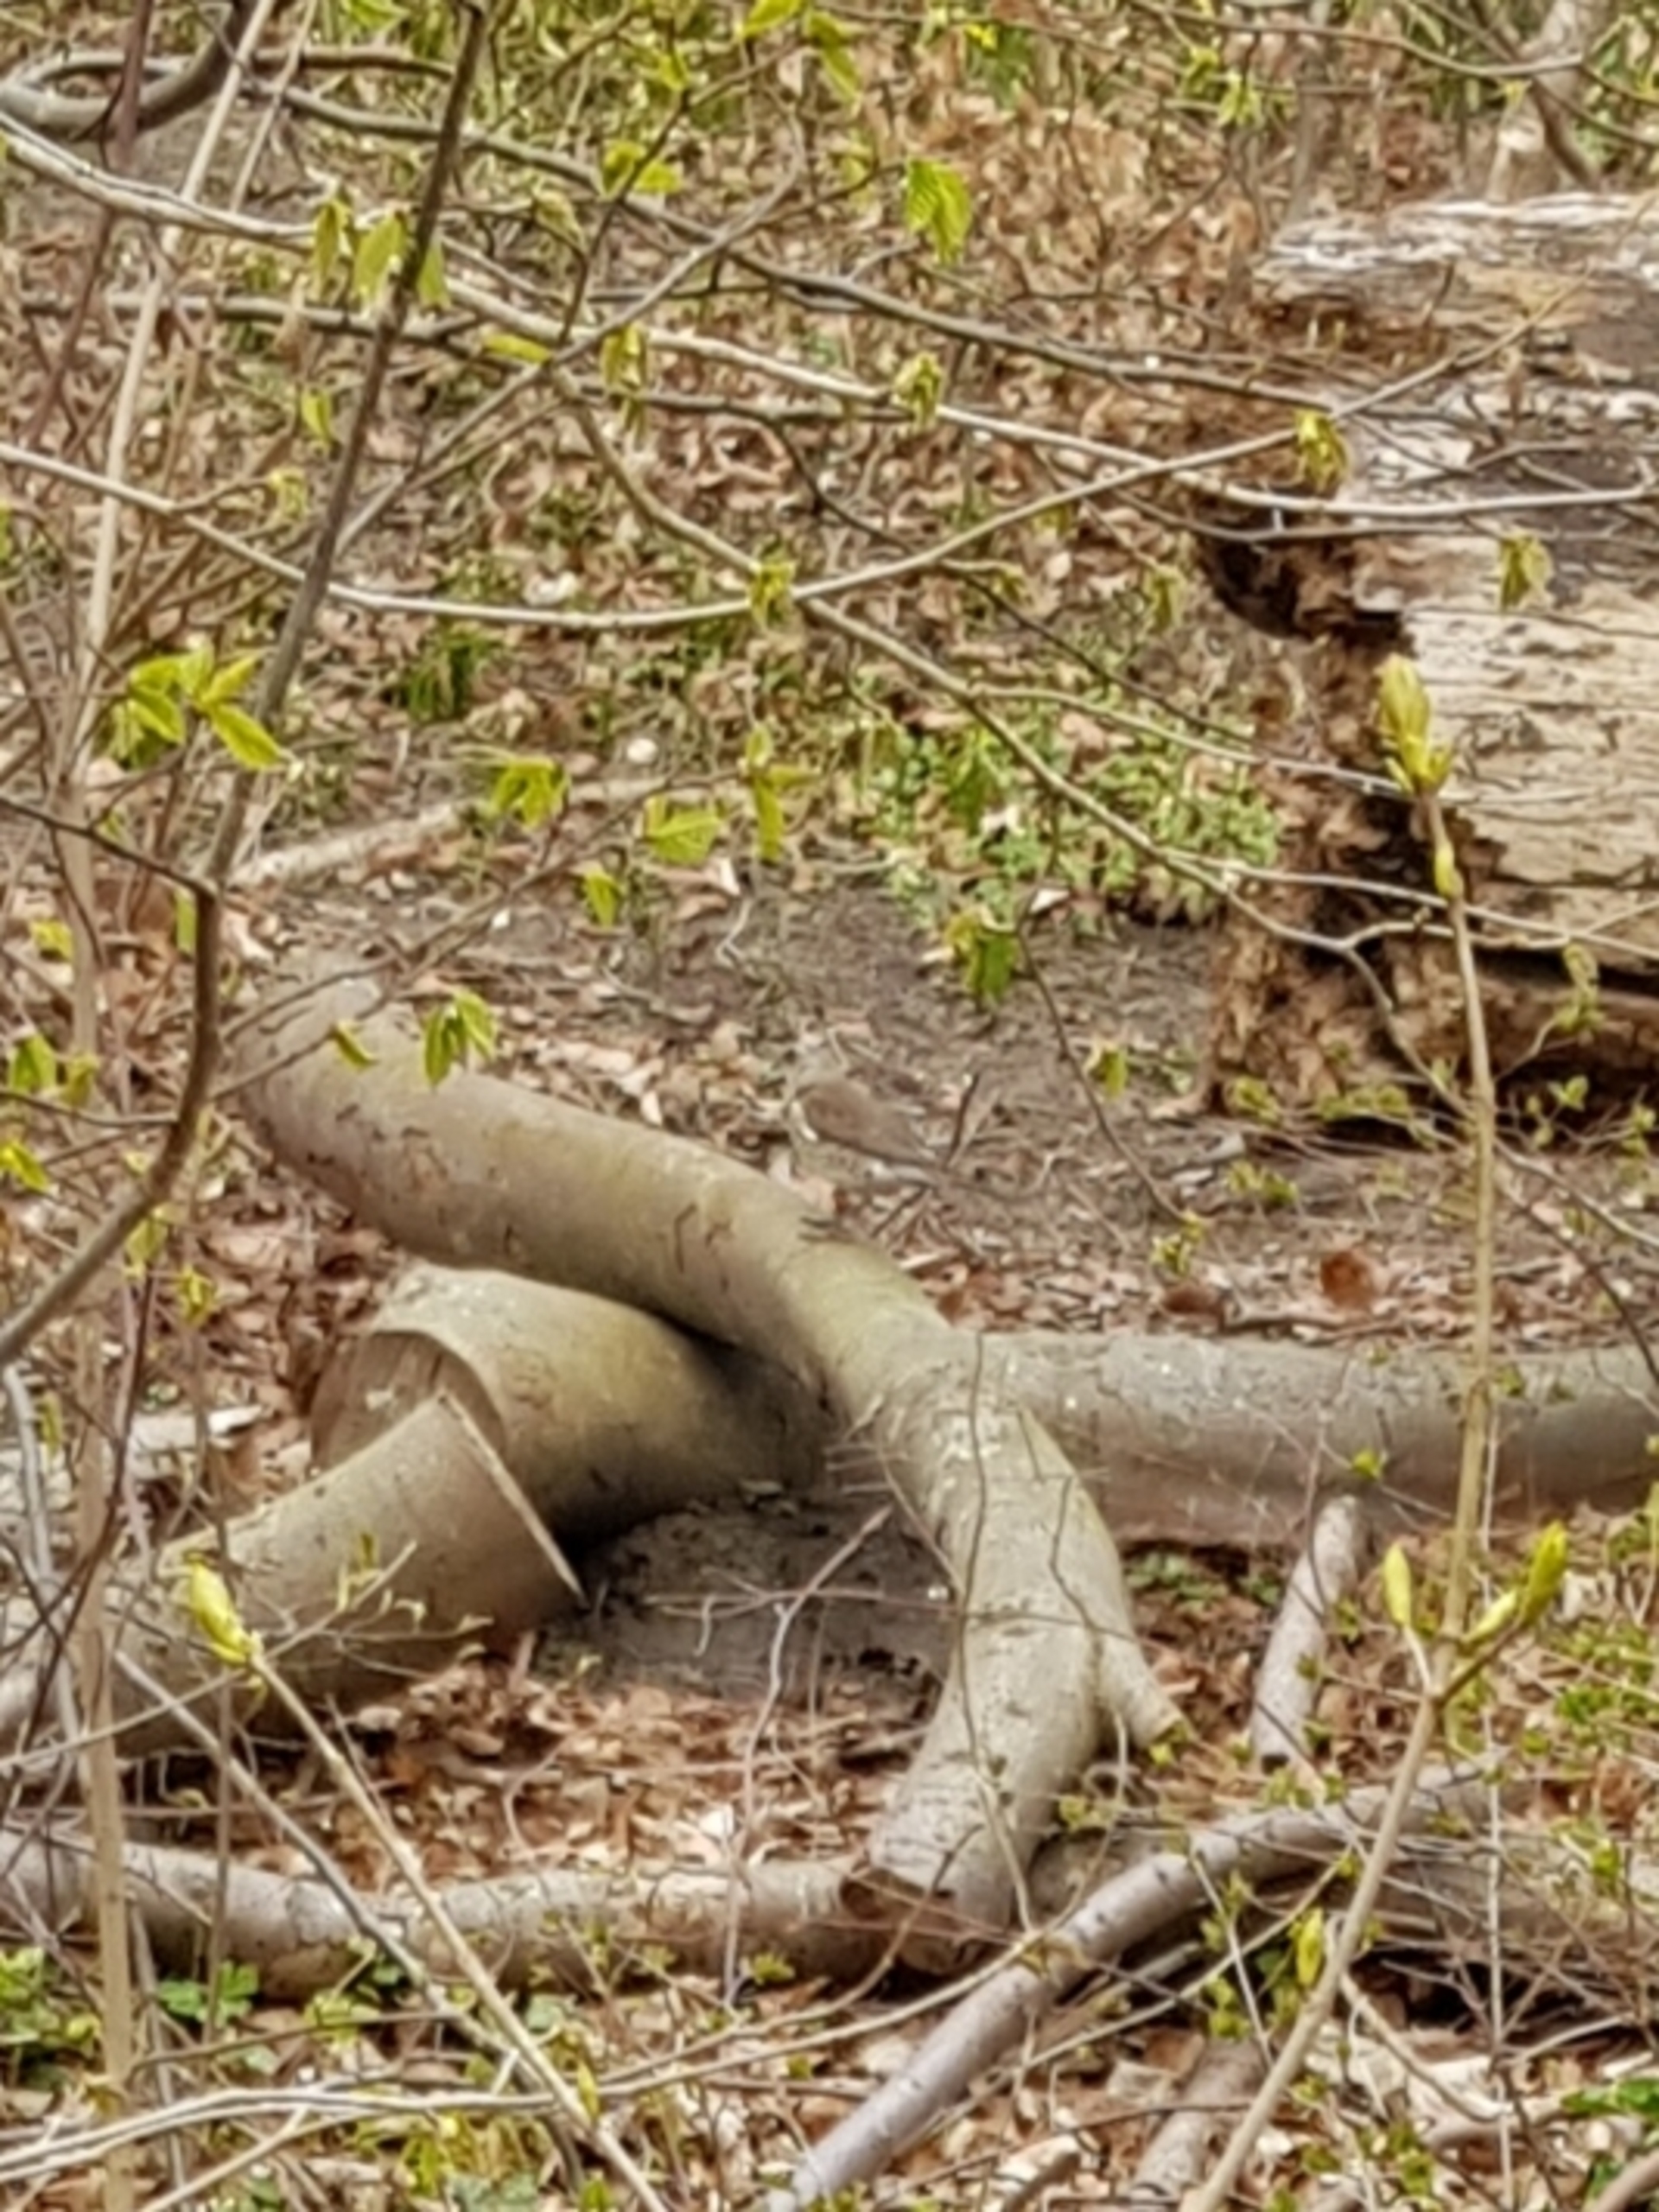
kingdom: Animalia
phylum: Chordata
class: Aves
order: Passeriformes
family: Turdidae
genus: Turdus
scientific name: Turdus pilaris
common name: Sjagger
